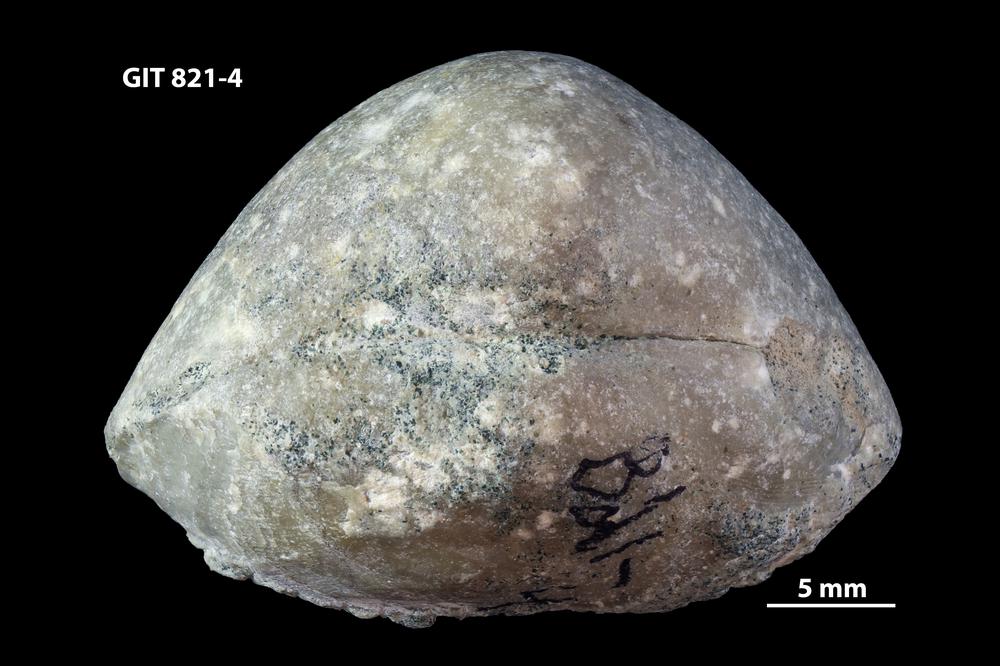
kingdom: Animalia
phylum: Brachiopoda
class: Rhynchonellata
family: Porambonitidae
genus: Eoporambonites
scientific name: Eoporambonites Porambonites latus
